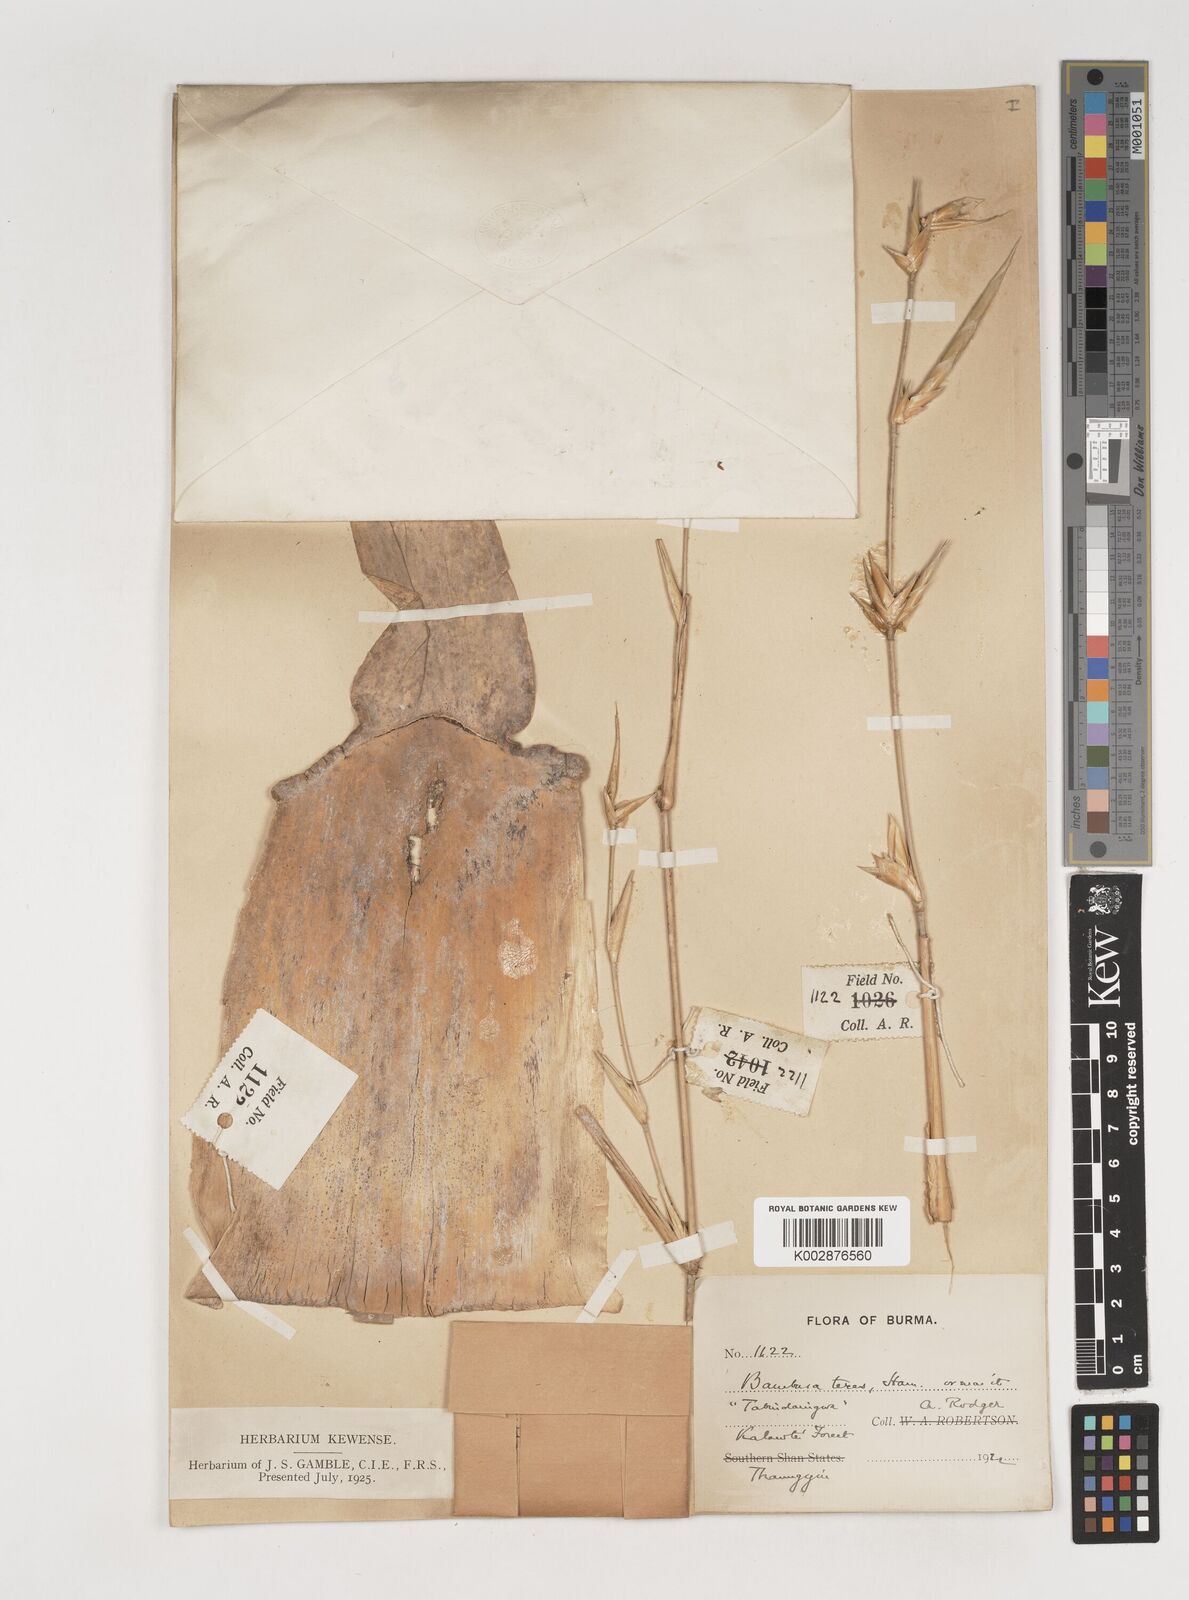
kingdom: Plantae
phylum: Tracheophyta
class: Liliopsida
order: Poales
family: Poaceae
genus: Bambusa
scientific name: Bambusa longispiculata
